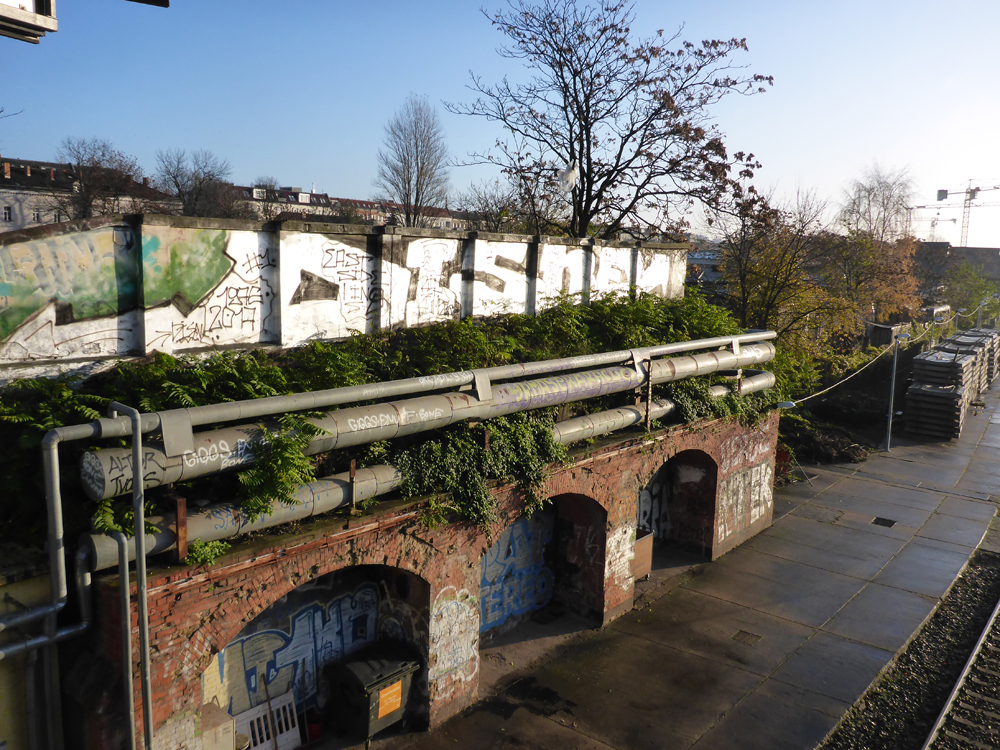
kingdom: Plantae
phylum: Tracheophyta
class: Magnoliopsida
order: Sapindales
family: Simaroubaceae
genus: Ailanthus
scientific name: Ailanthus
